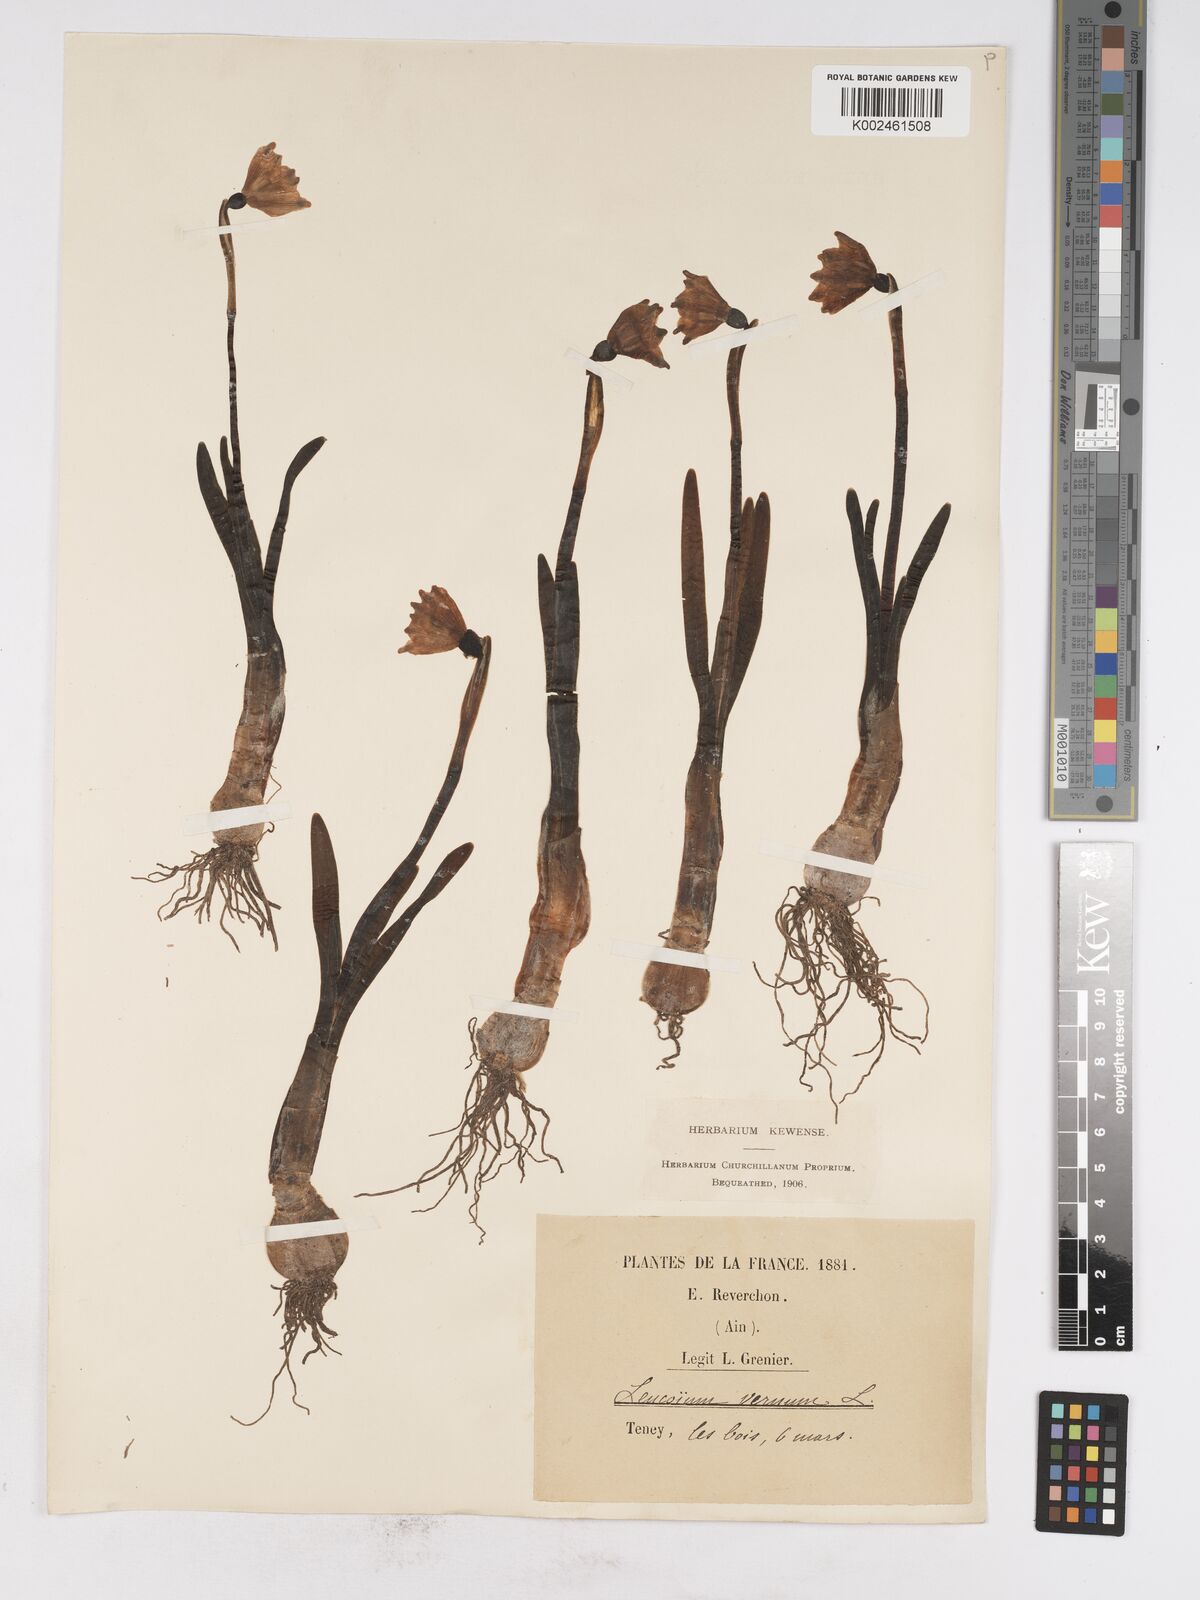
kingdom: Plantae
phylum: Tracheophyta
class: Liliopsida
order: Asparagales
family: Amaryllidaceae
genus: Leucojum
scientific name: Leucojum vernum
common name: Spring snowflake
